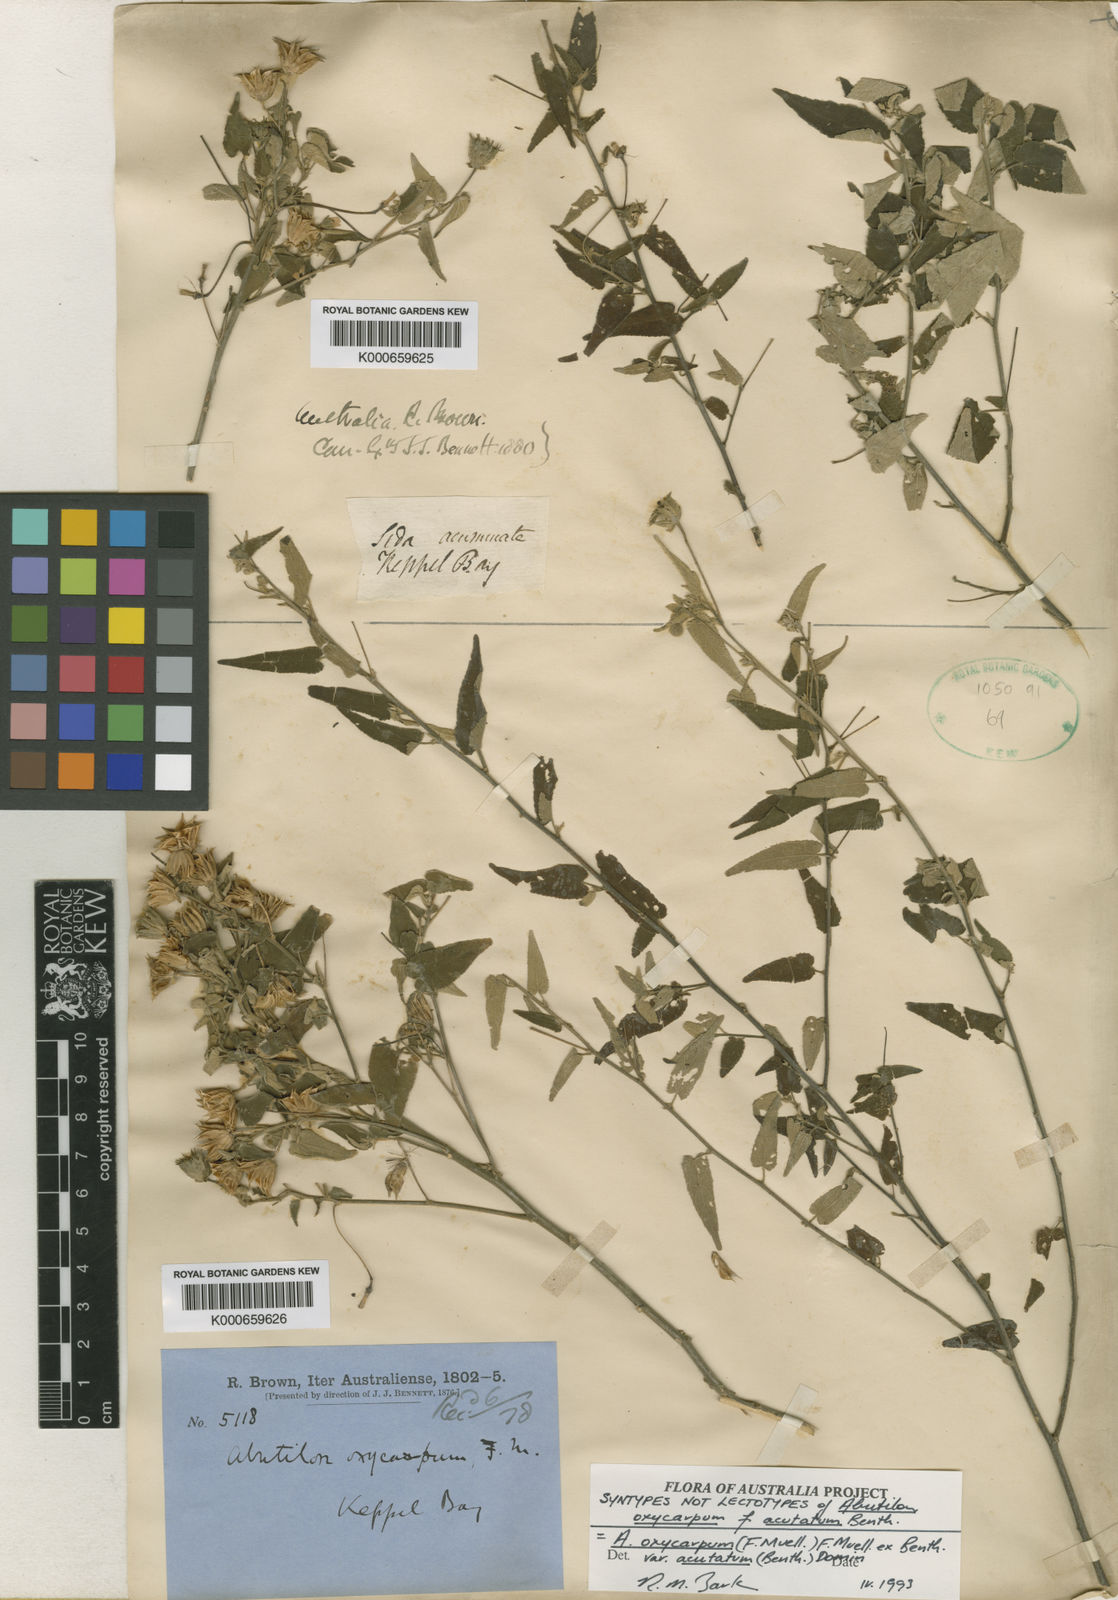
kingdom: Plantae
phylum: Tracheophyta
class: Magnoliopsida
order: Malvales
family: Malvaceae
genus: Abutilon
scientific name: Abutilon oxycarpum
